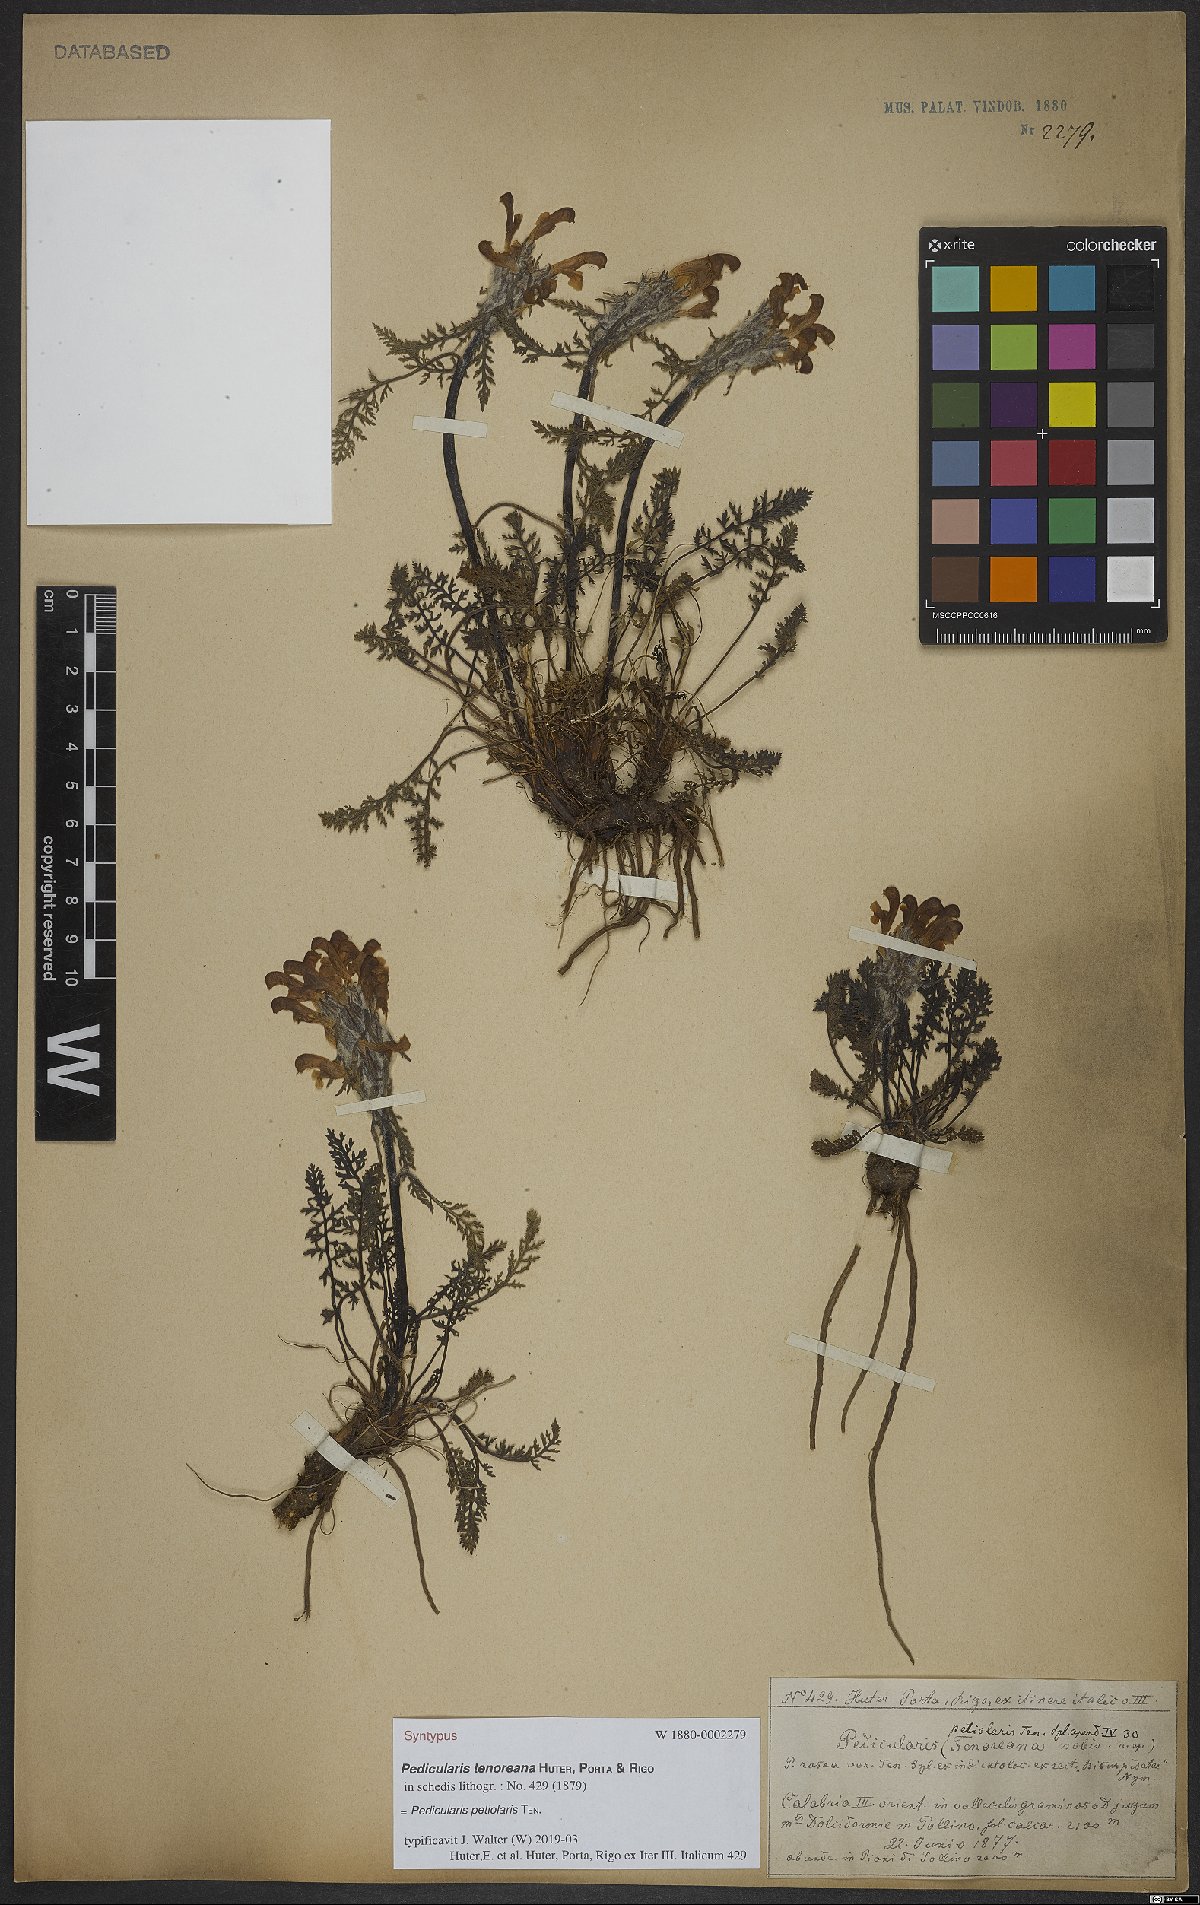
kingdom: Plantae
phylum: Tracheophyta
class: Magnoliopsida
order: Lamiales
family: Orobanchaceae
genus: Pedicularis
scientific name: Pedicularis petiolaris
